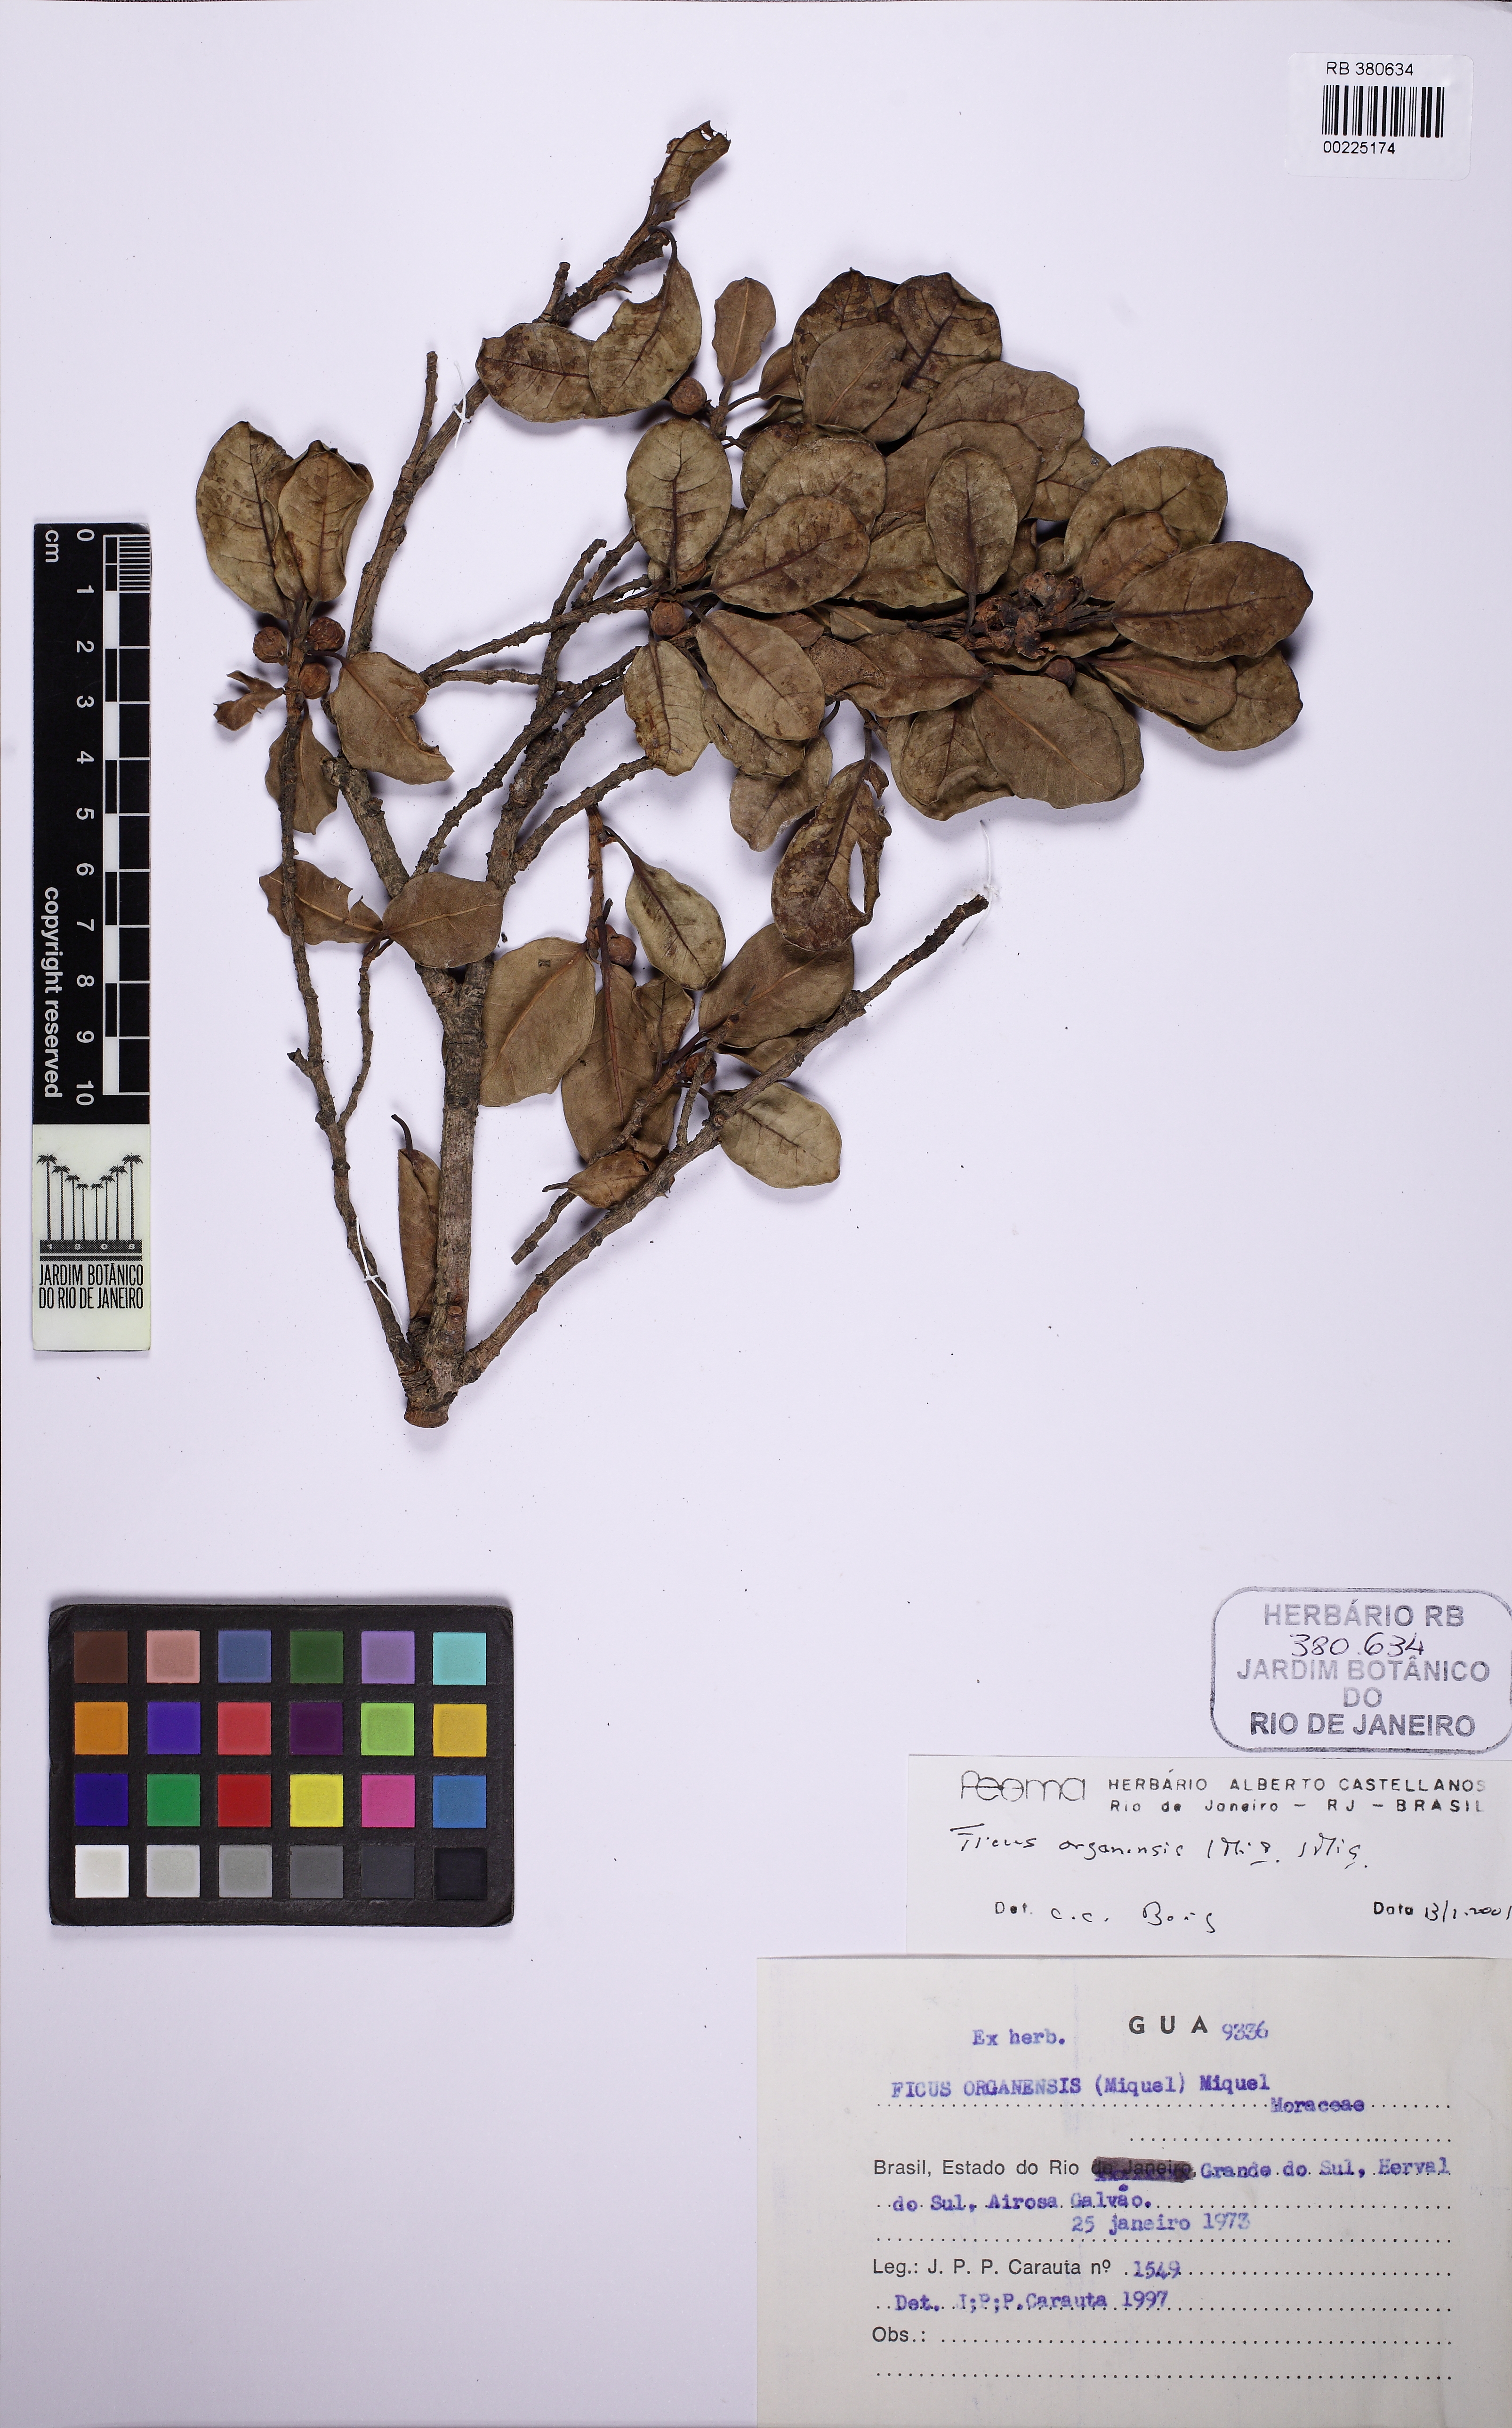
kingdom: Plantae
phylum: Tracheophyta
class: Magnoliopsida
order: Rosales
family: Moraceae
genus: Ficus
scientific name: Ficus organensis
